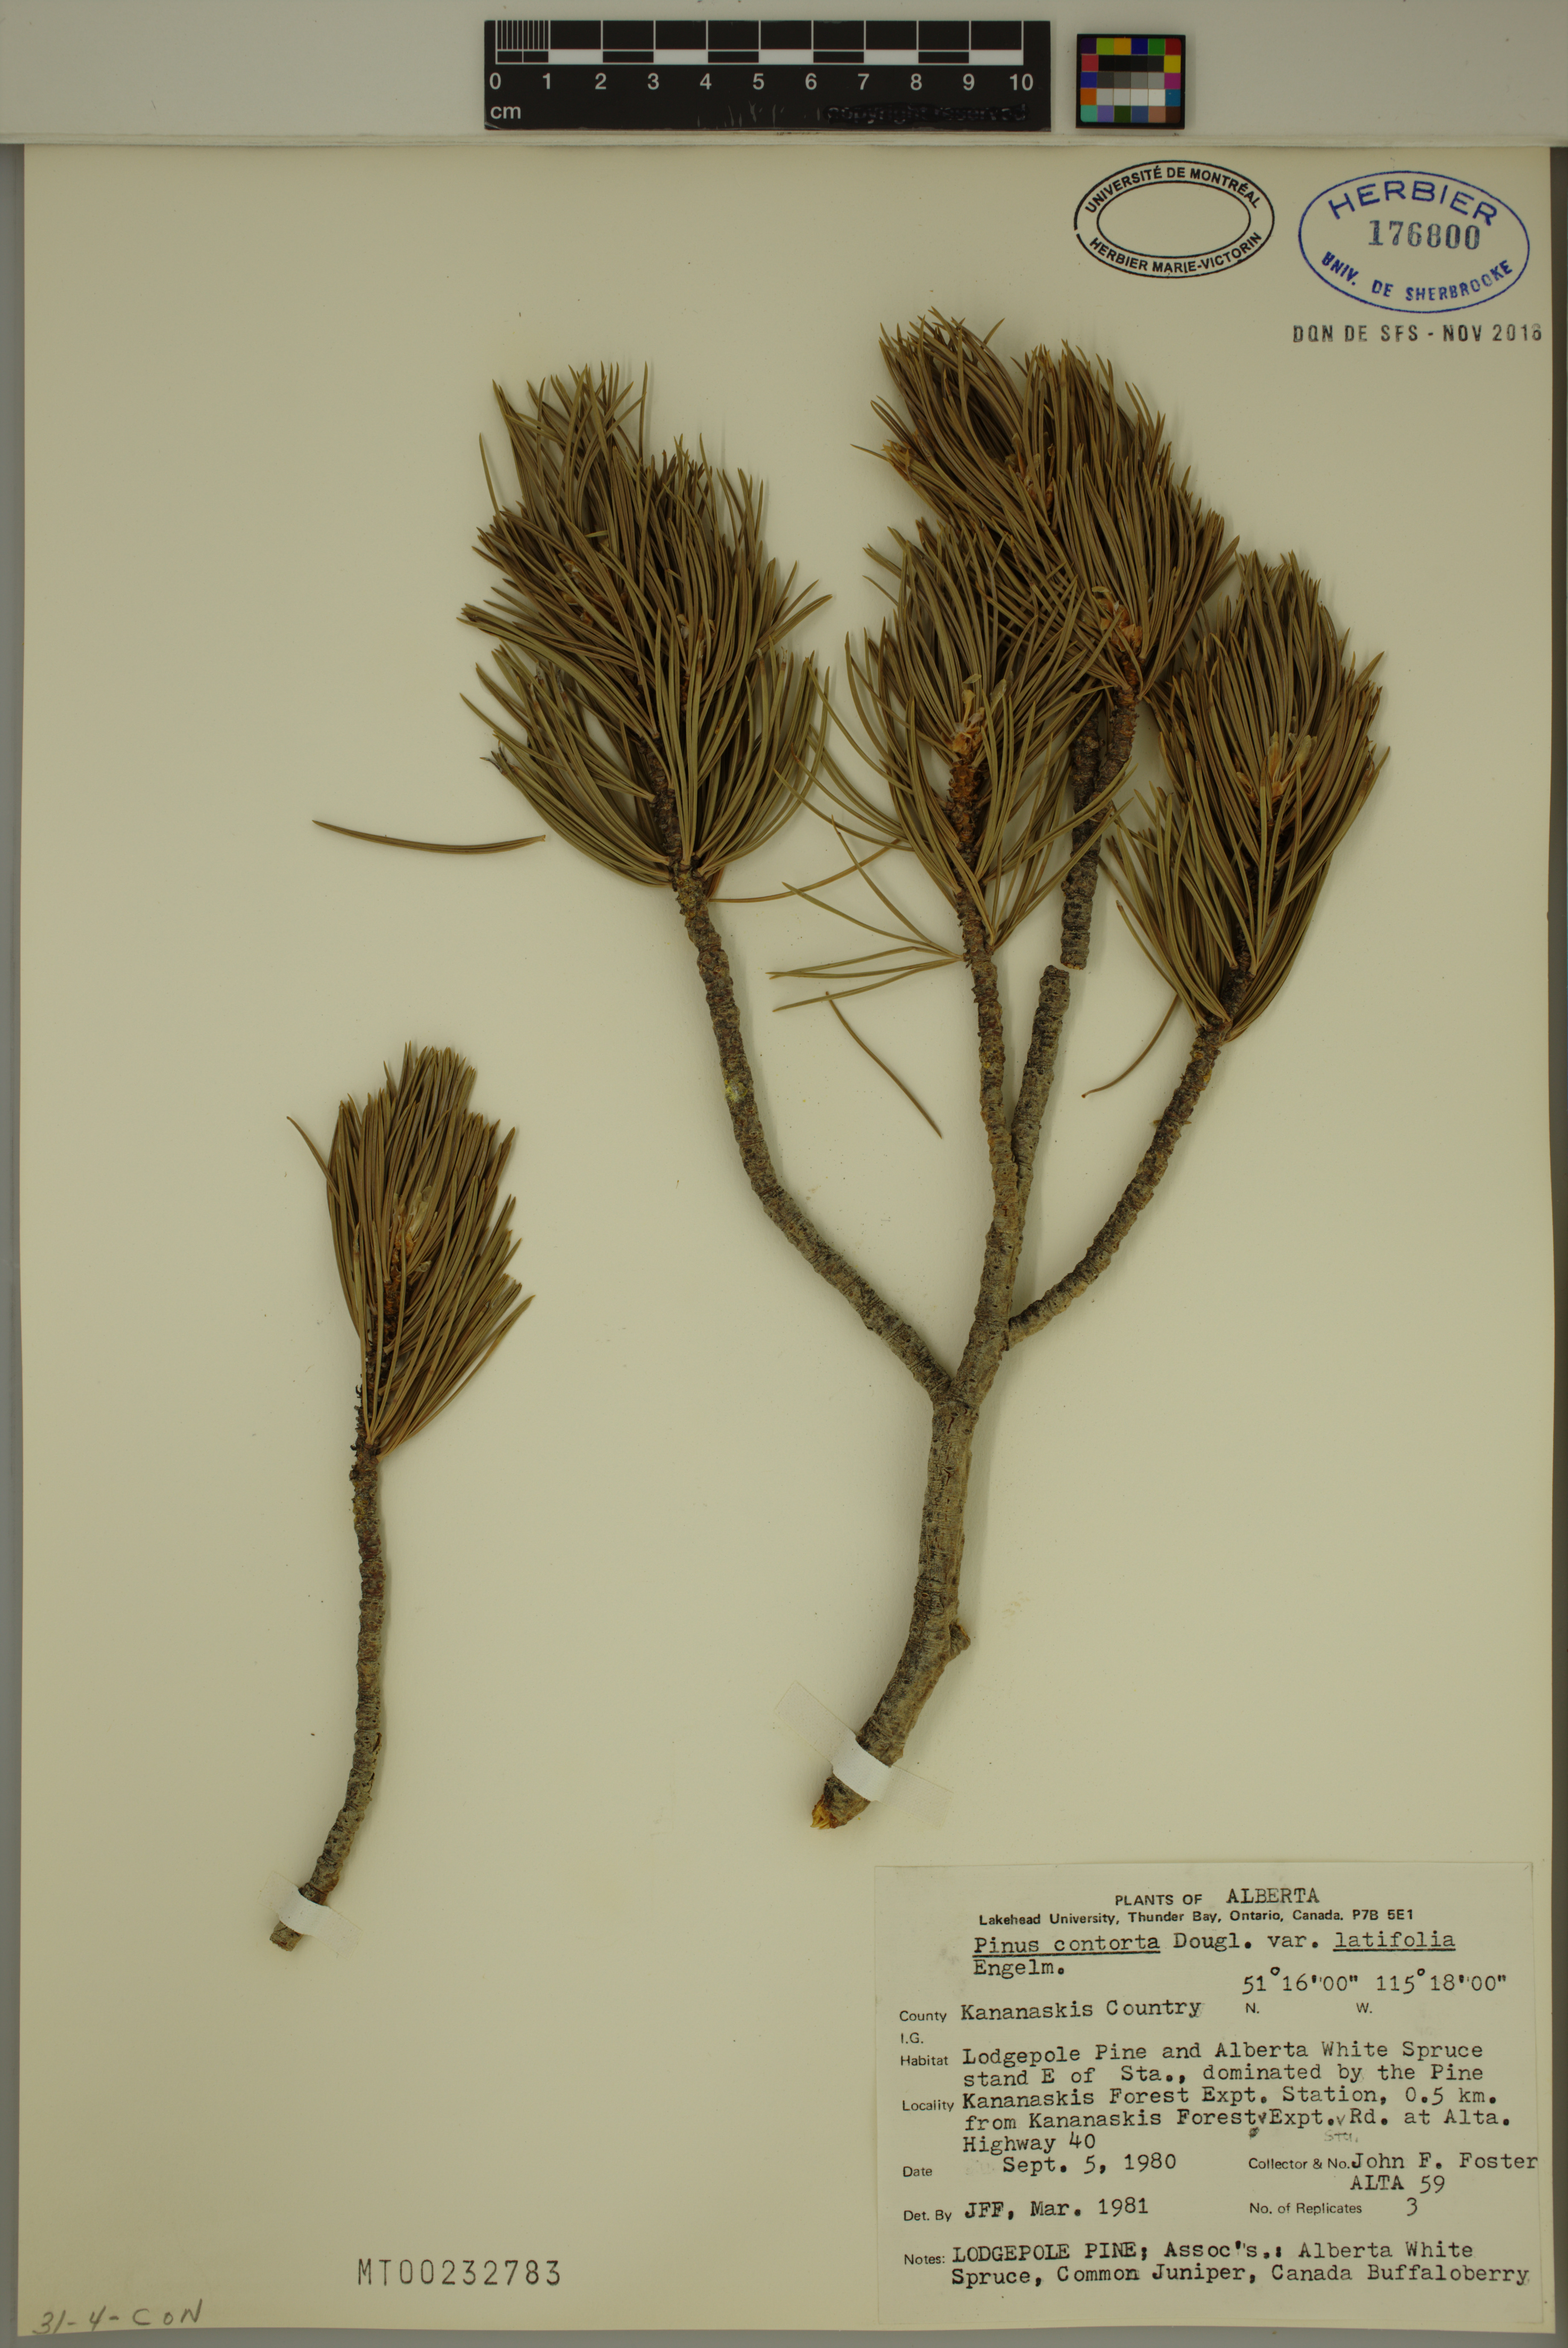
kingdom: Plantae
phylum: Tracheophyta
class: Pinopsida
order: Pinales
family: Pinaceae
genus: Pinus
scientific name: Pinus contorta
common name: Lodgepole pine
